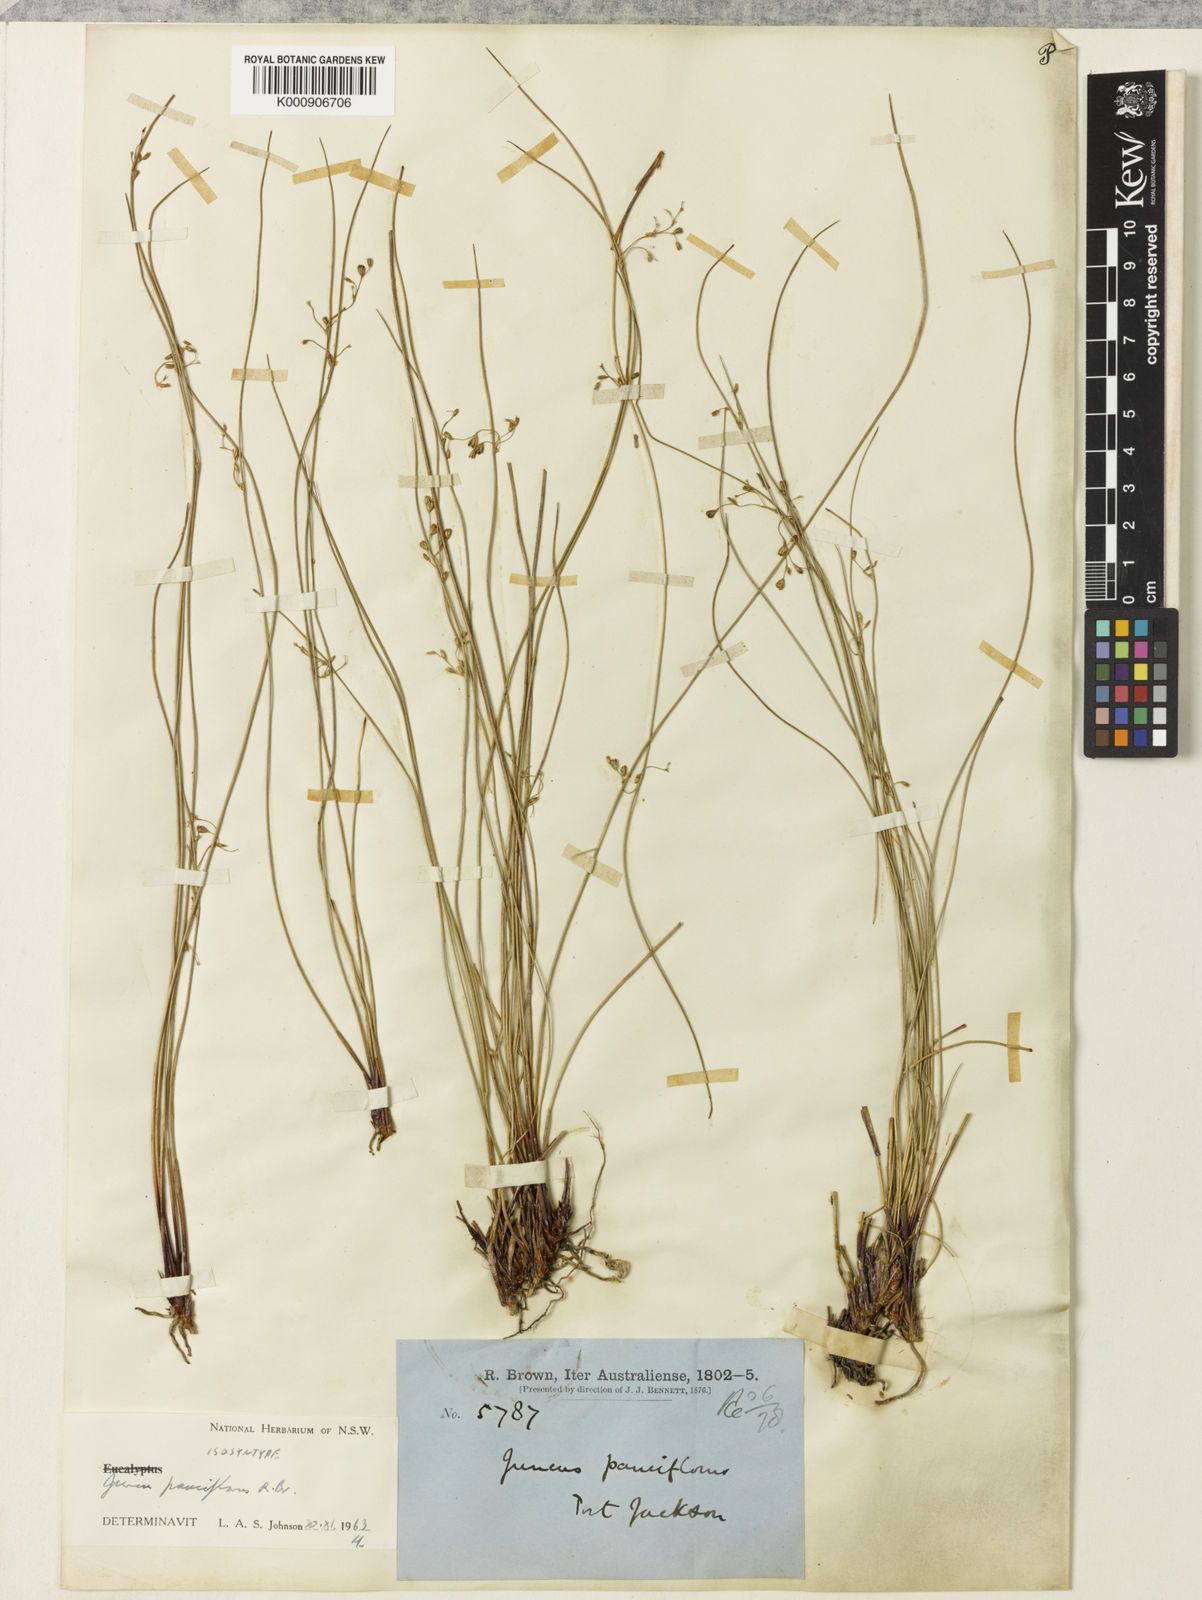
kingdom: Plantae
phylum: Tracheophyta
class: Liliopsida
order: Poales
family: Juncaceae
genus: Juncus
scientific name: Juncus pauciflorus
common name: Loose-flowered rush
